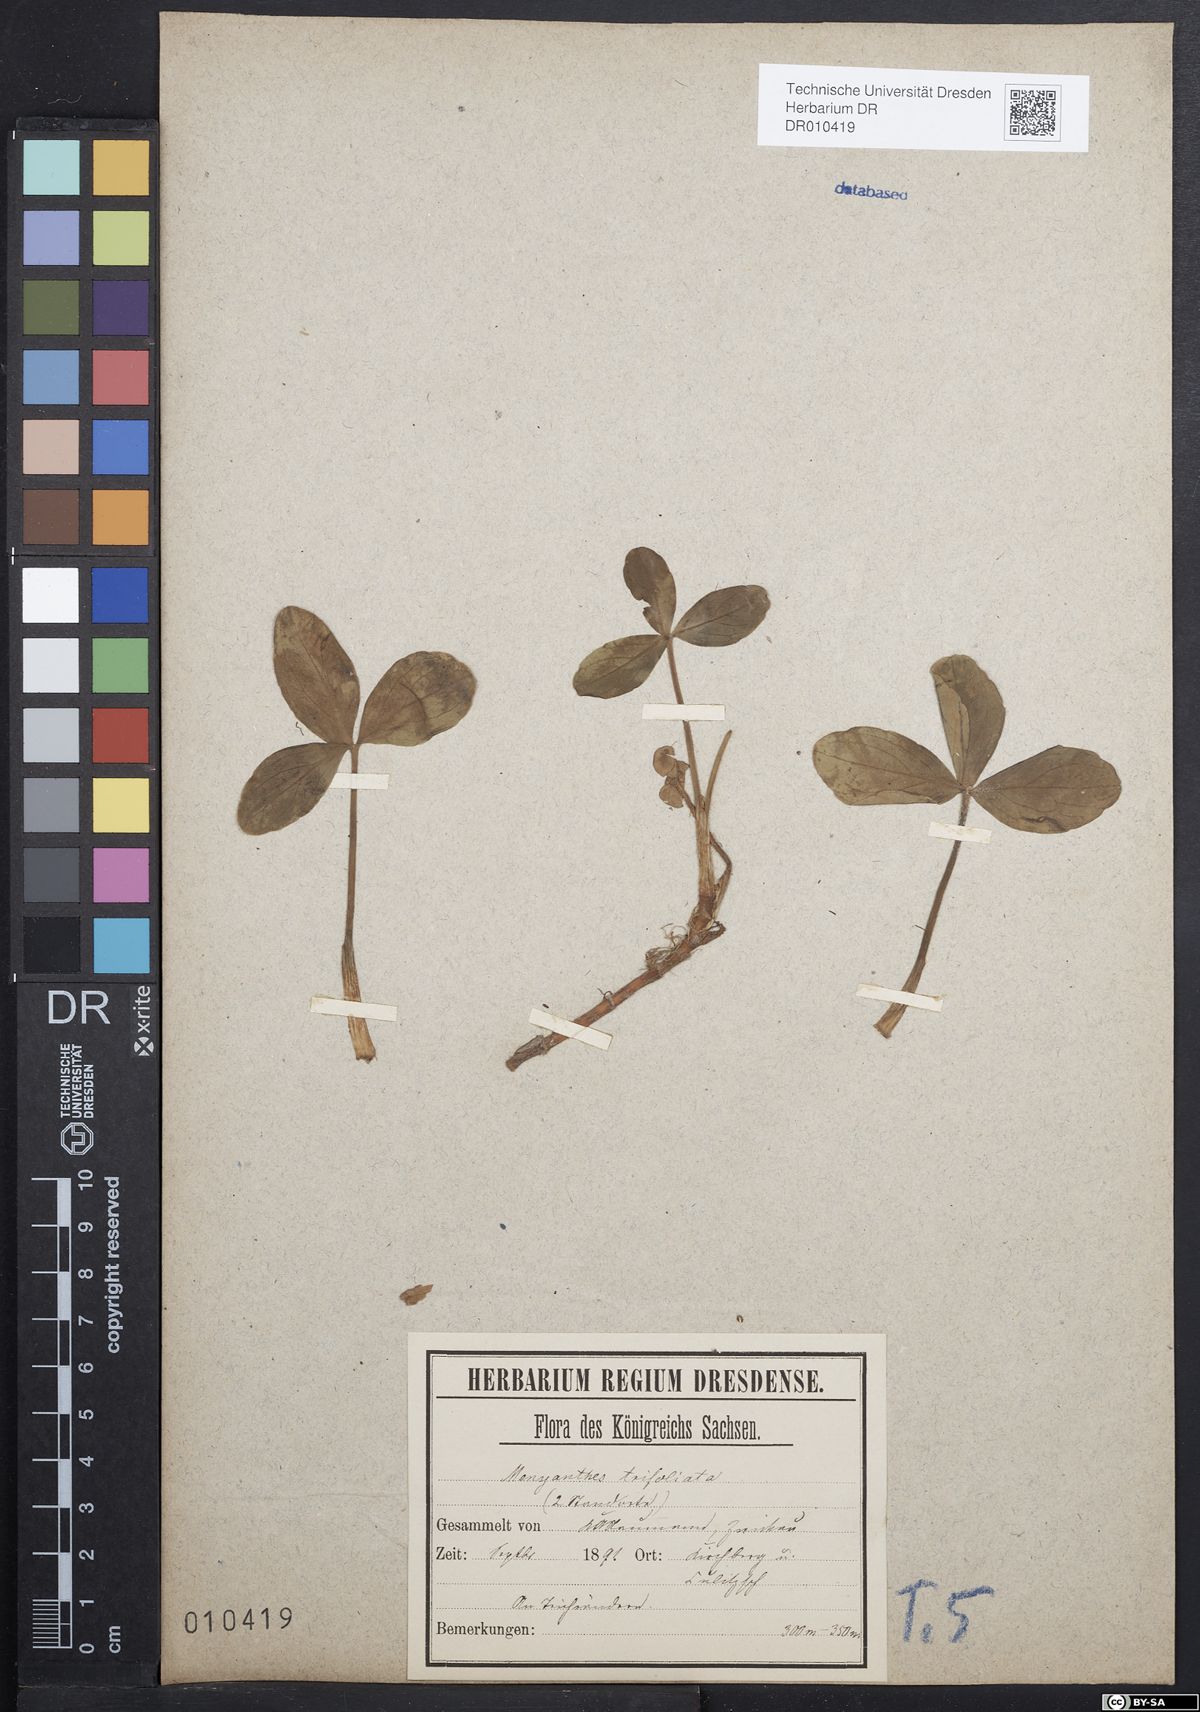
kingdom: Plantae
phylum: Tracheophyta
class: Magnoliopsida
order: Asterales
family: Menyanthaceae
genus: Menyanthes
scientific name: Menyanthes trifoliata
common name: Bogbean
